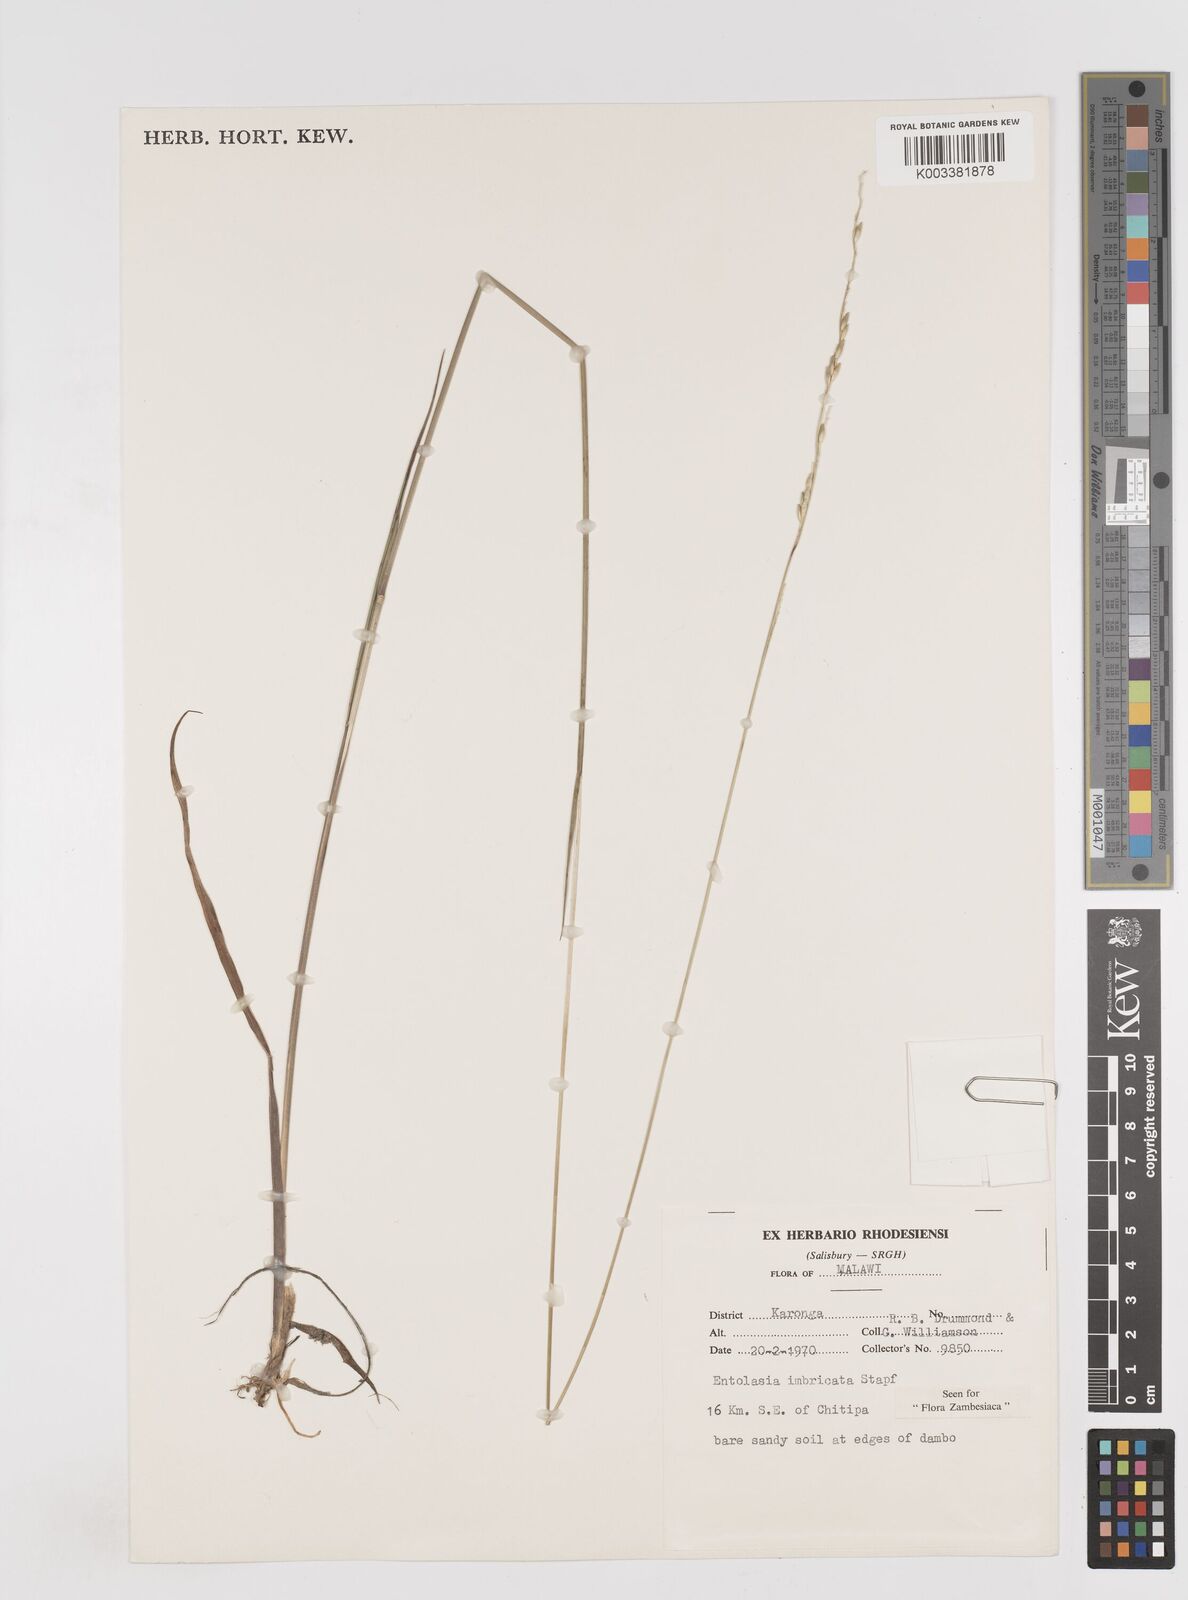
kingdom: Plantae
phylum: Tracheophyta
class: Liliopsida
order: Poales
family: Poaceae
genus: Entolasia
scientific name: Entolasia imbricata
